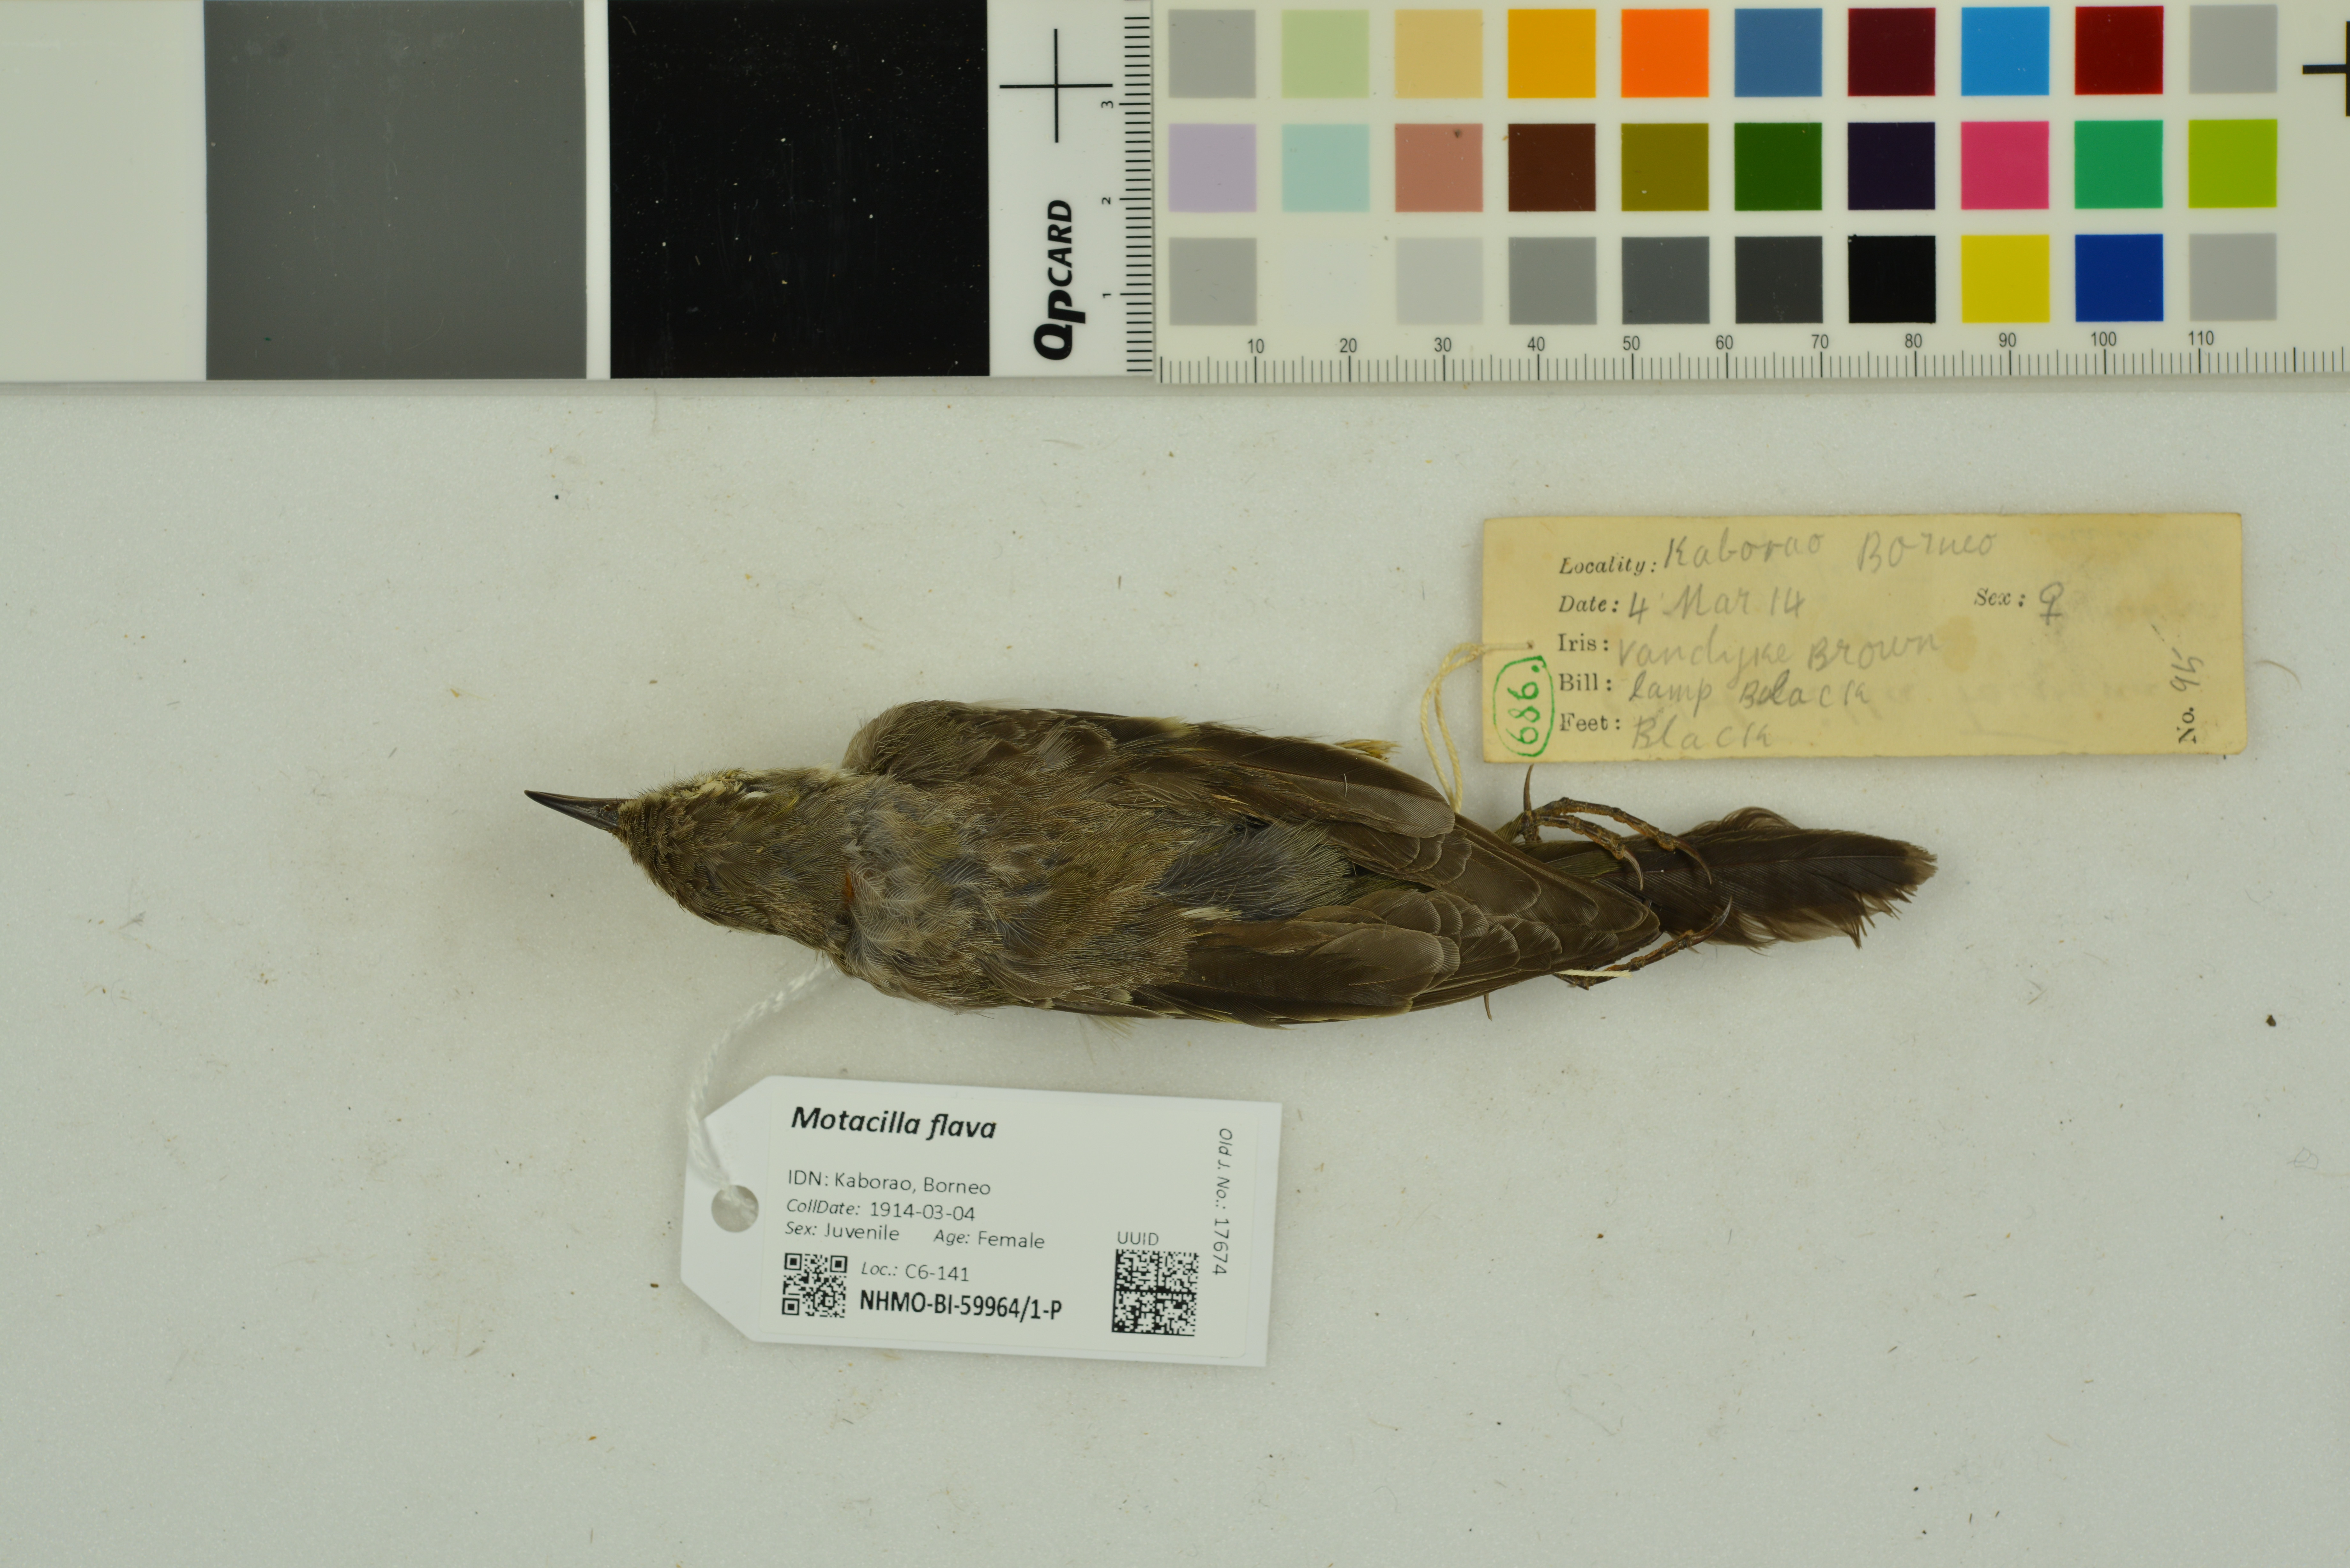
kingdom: Animalia
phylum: Chordata
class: Aves
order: Passeriformes
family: Motacillidae
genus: Motacilla
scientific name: Motacilla flava
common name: Western yellow wagtail
